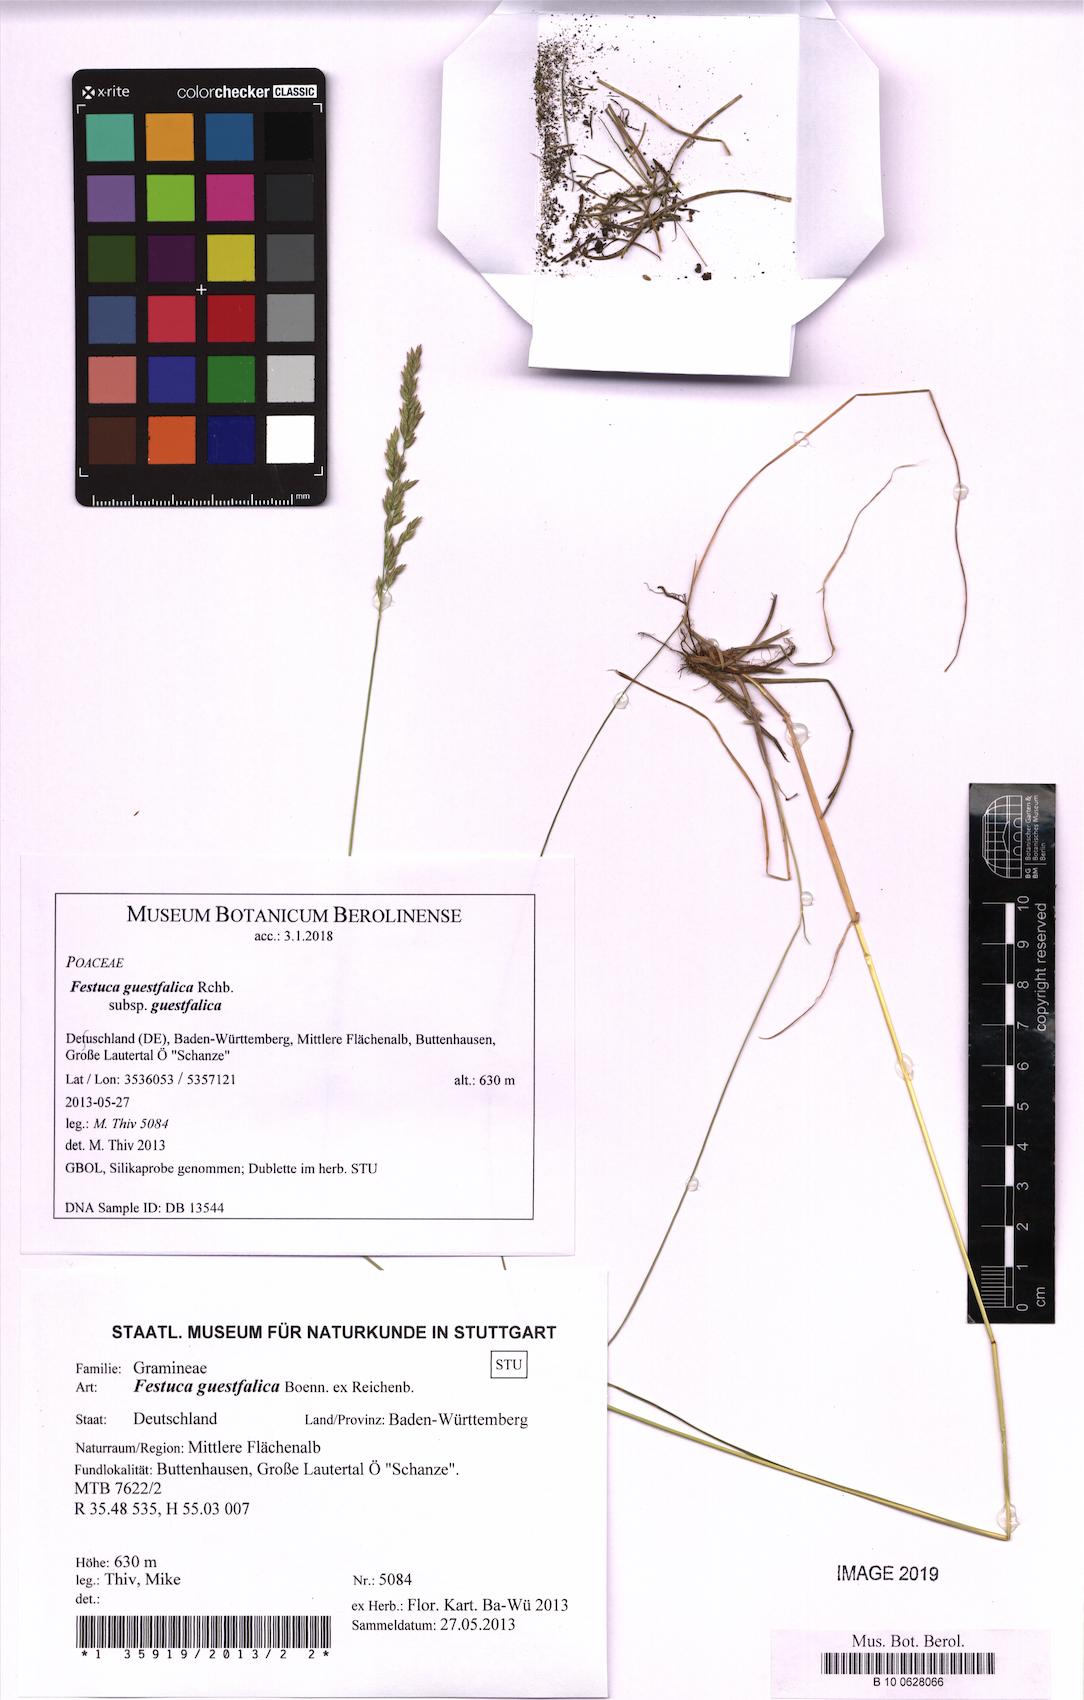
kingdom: Plantae
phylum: Tracheophyta
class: Liliopsida
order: Poales
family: Poaceae
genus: Festuca
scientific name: Festuca guestfalica
